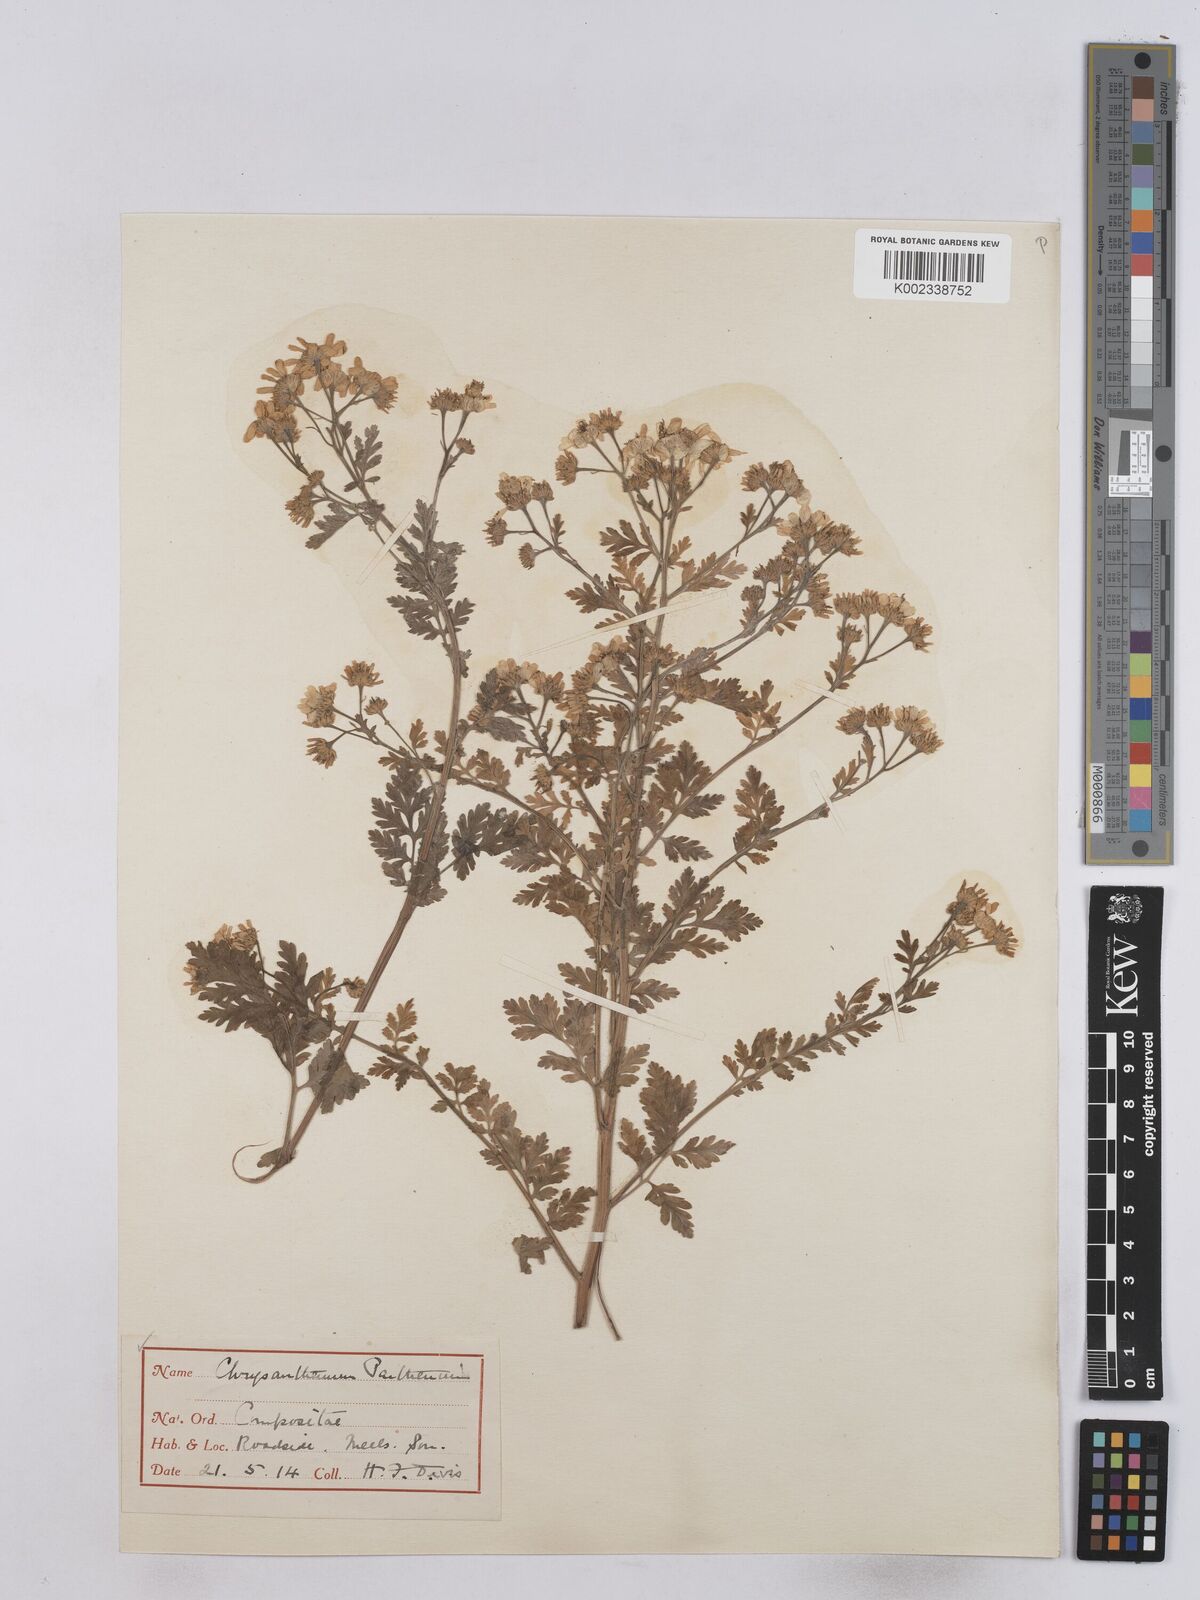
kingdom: Plantae
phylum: Tracheophyta
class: Magnoliopsida
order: Asterales
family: Asteraceae
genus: Tanacetum
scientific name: Tanacetum parthenium
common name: Feverfew
